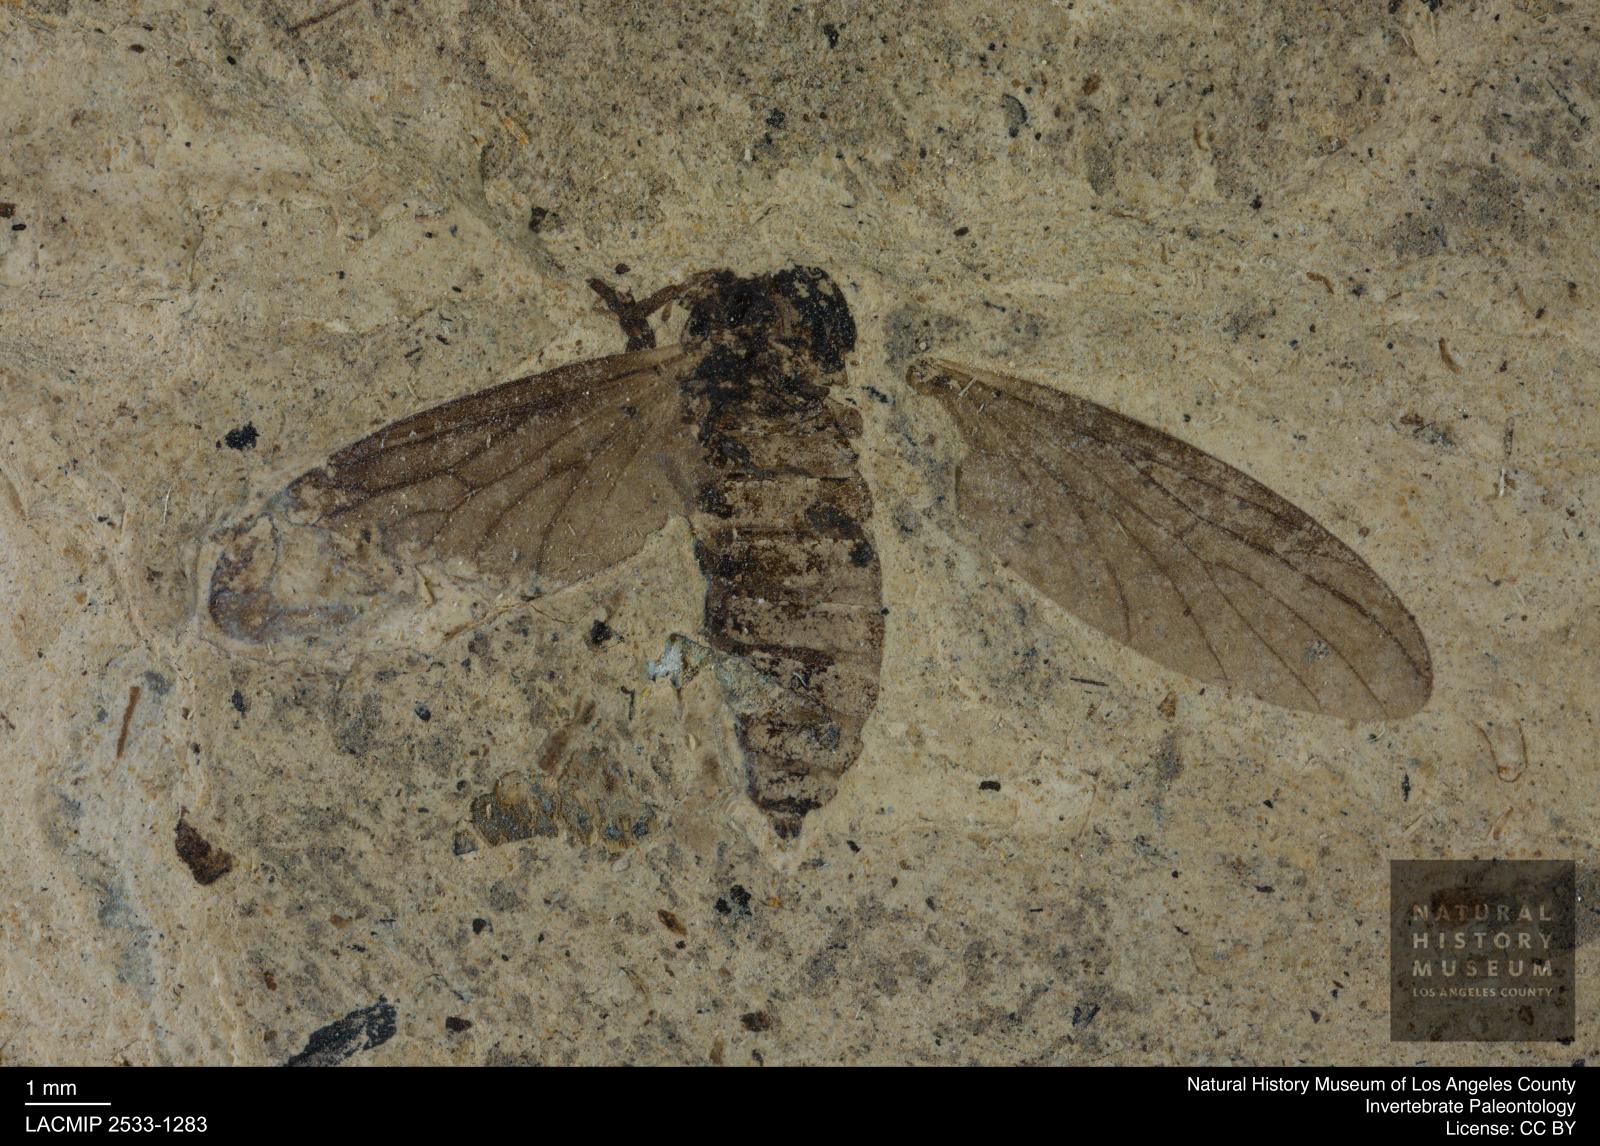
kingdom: Animalia
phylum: Arthropoda
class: Insecta
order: Diptera
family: Bibionidae
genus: Plecia
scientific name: Plecia stygia
